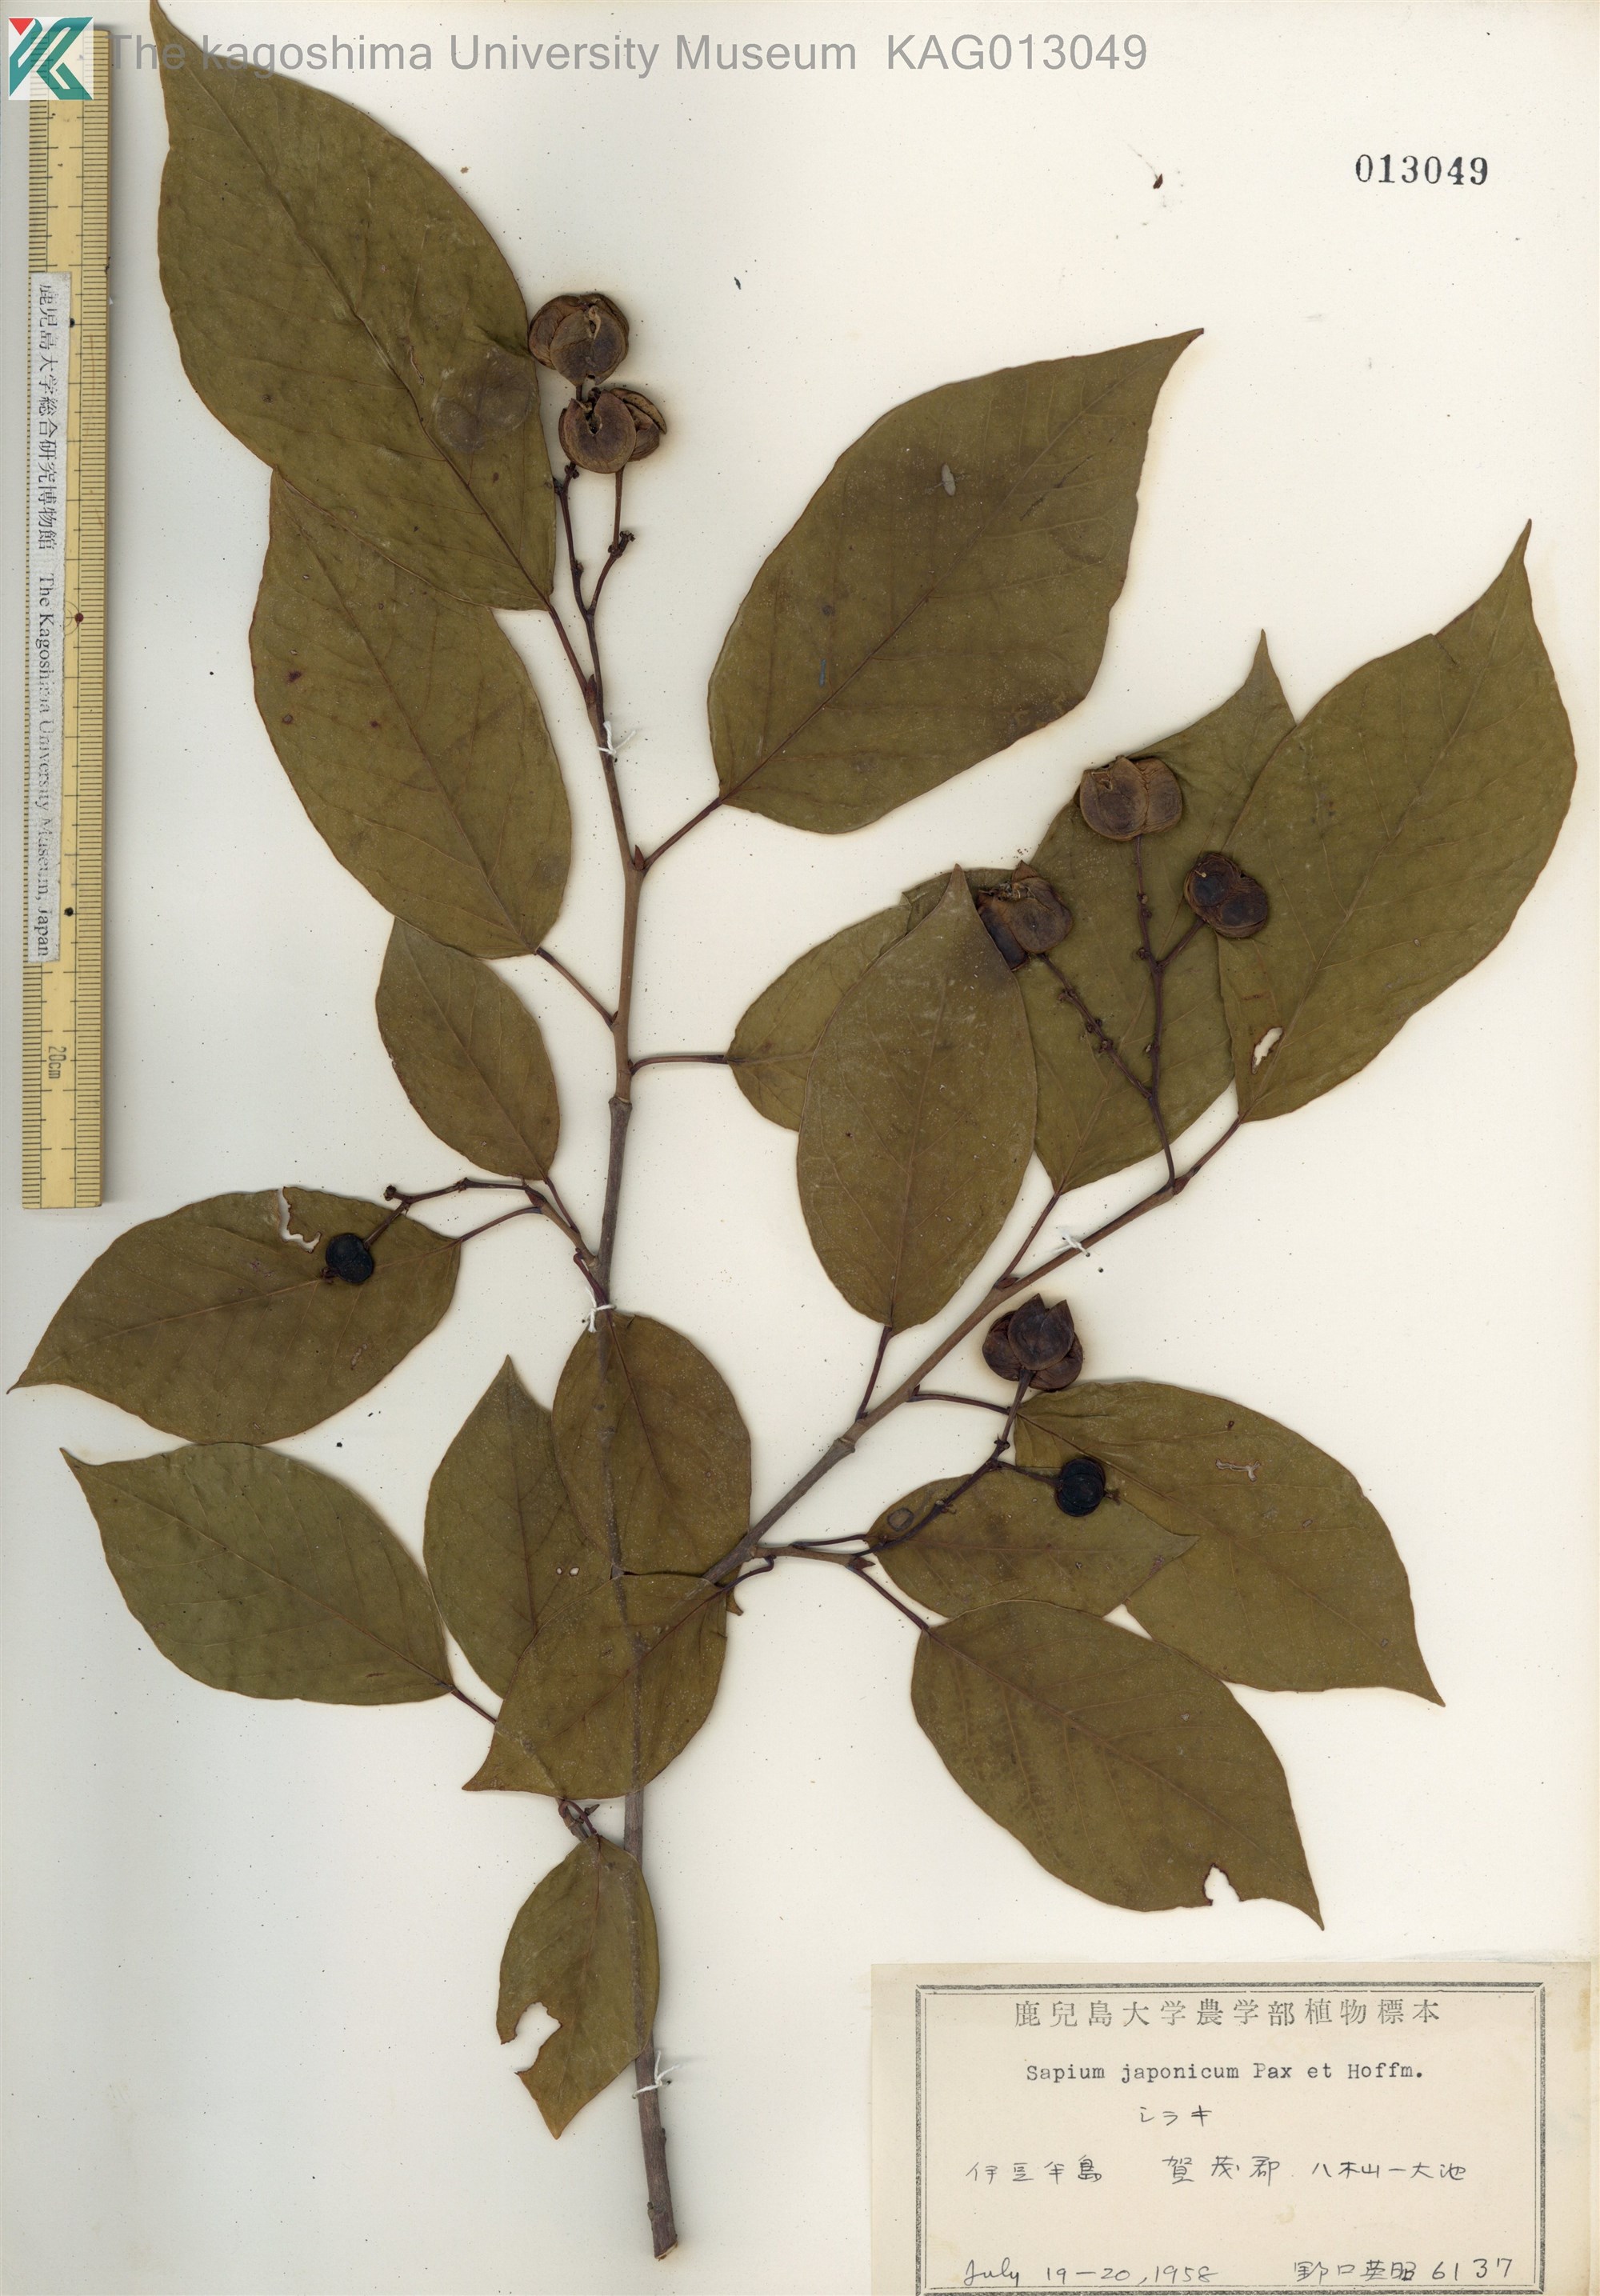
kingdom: Plantae
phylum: Tracheophyta
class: Magnoliopsida
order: Malpighiales
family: Euphorbiaceae
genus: Neoshirakia
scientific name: Neoshirakia japonica
